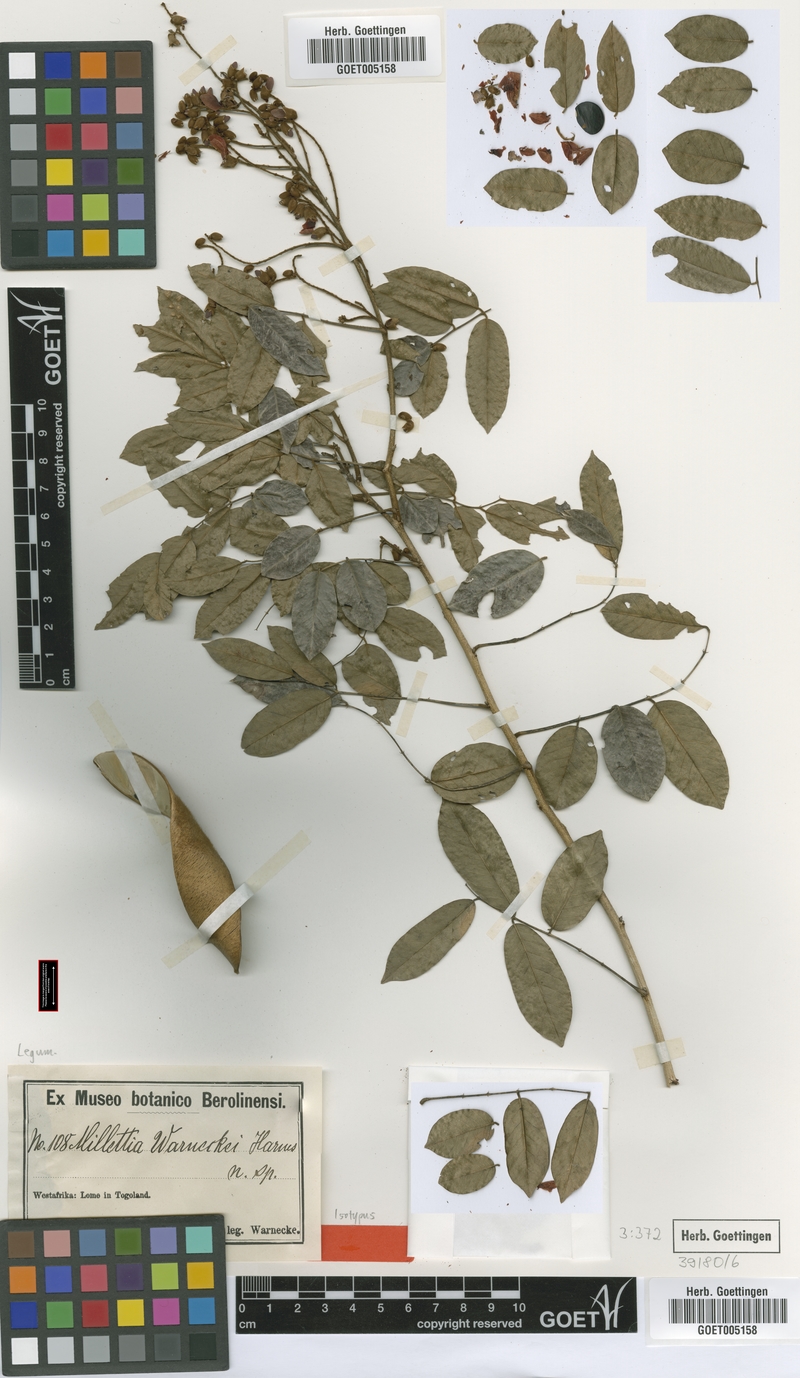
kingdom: Plantae
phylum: Tracheophyta
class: Magnoliopsida
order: Fabales
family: Fabaceae
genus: Millettia
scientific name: Millettia warneckei
